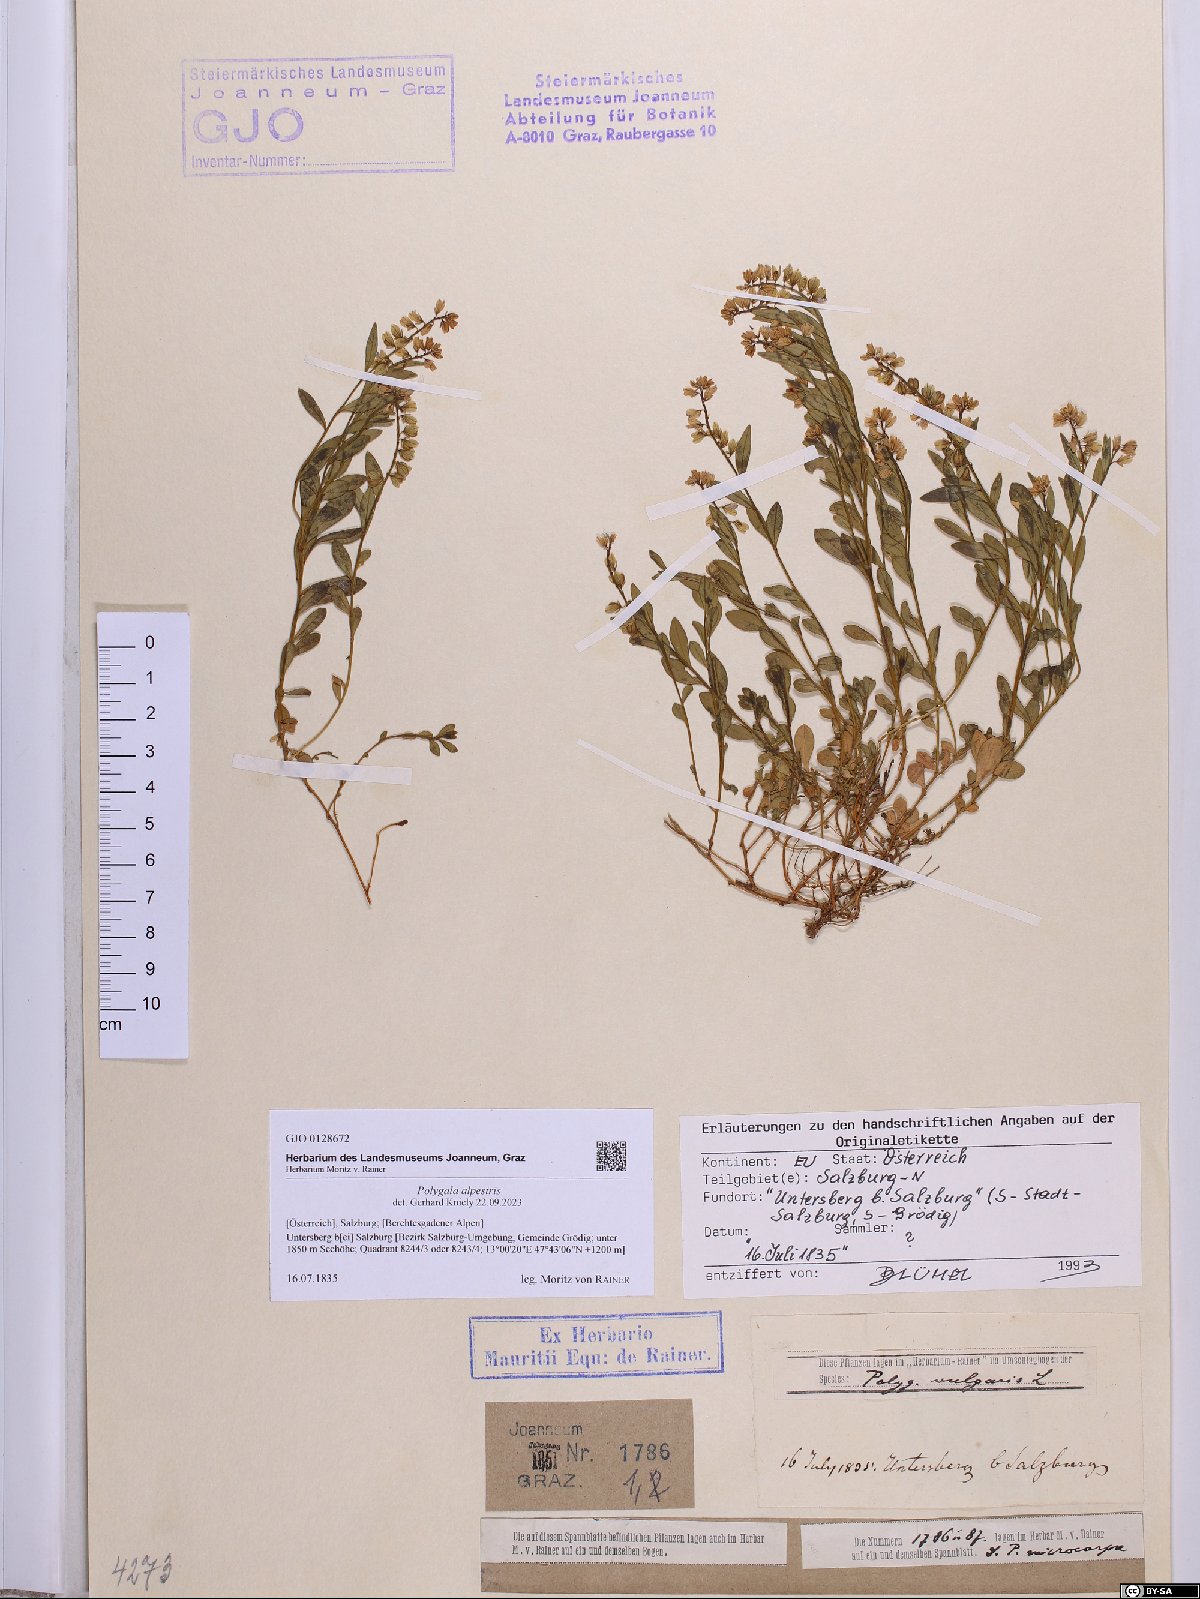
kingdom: Plantae
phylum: Tracheophyta
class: Magnoliopsida
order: Fabales
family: Polygalaceae
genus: Polygala
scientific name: Polygala alpestris
